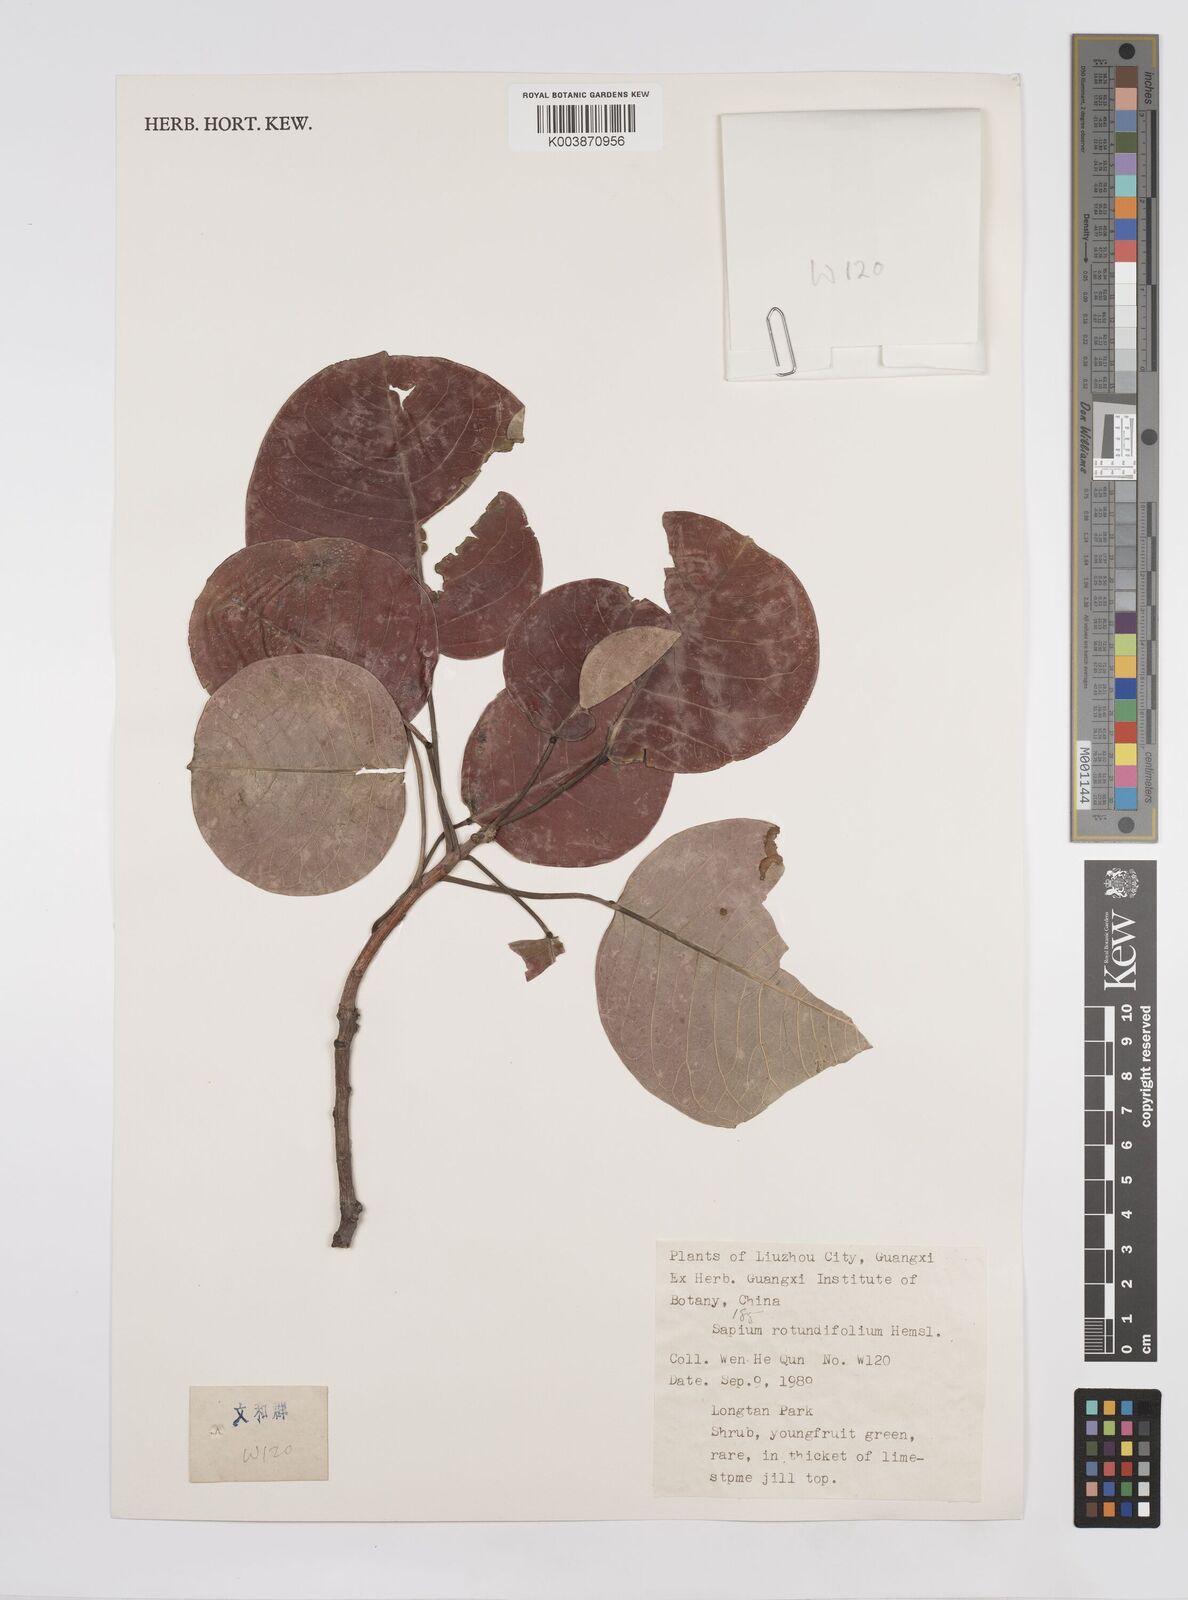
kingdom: Plantae
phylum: Tracheophyta
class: Magnoliopsida
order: Malpighiales
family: Euphorbiaceae
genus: Triadica
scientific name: Triadica rotundifolia
